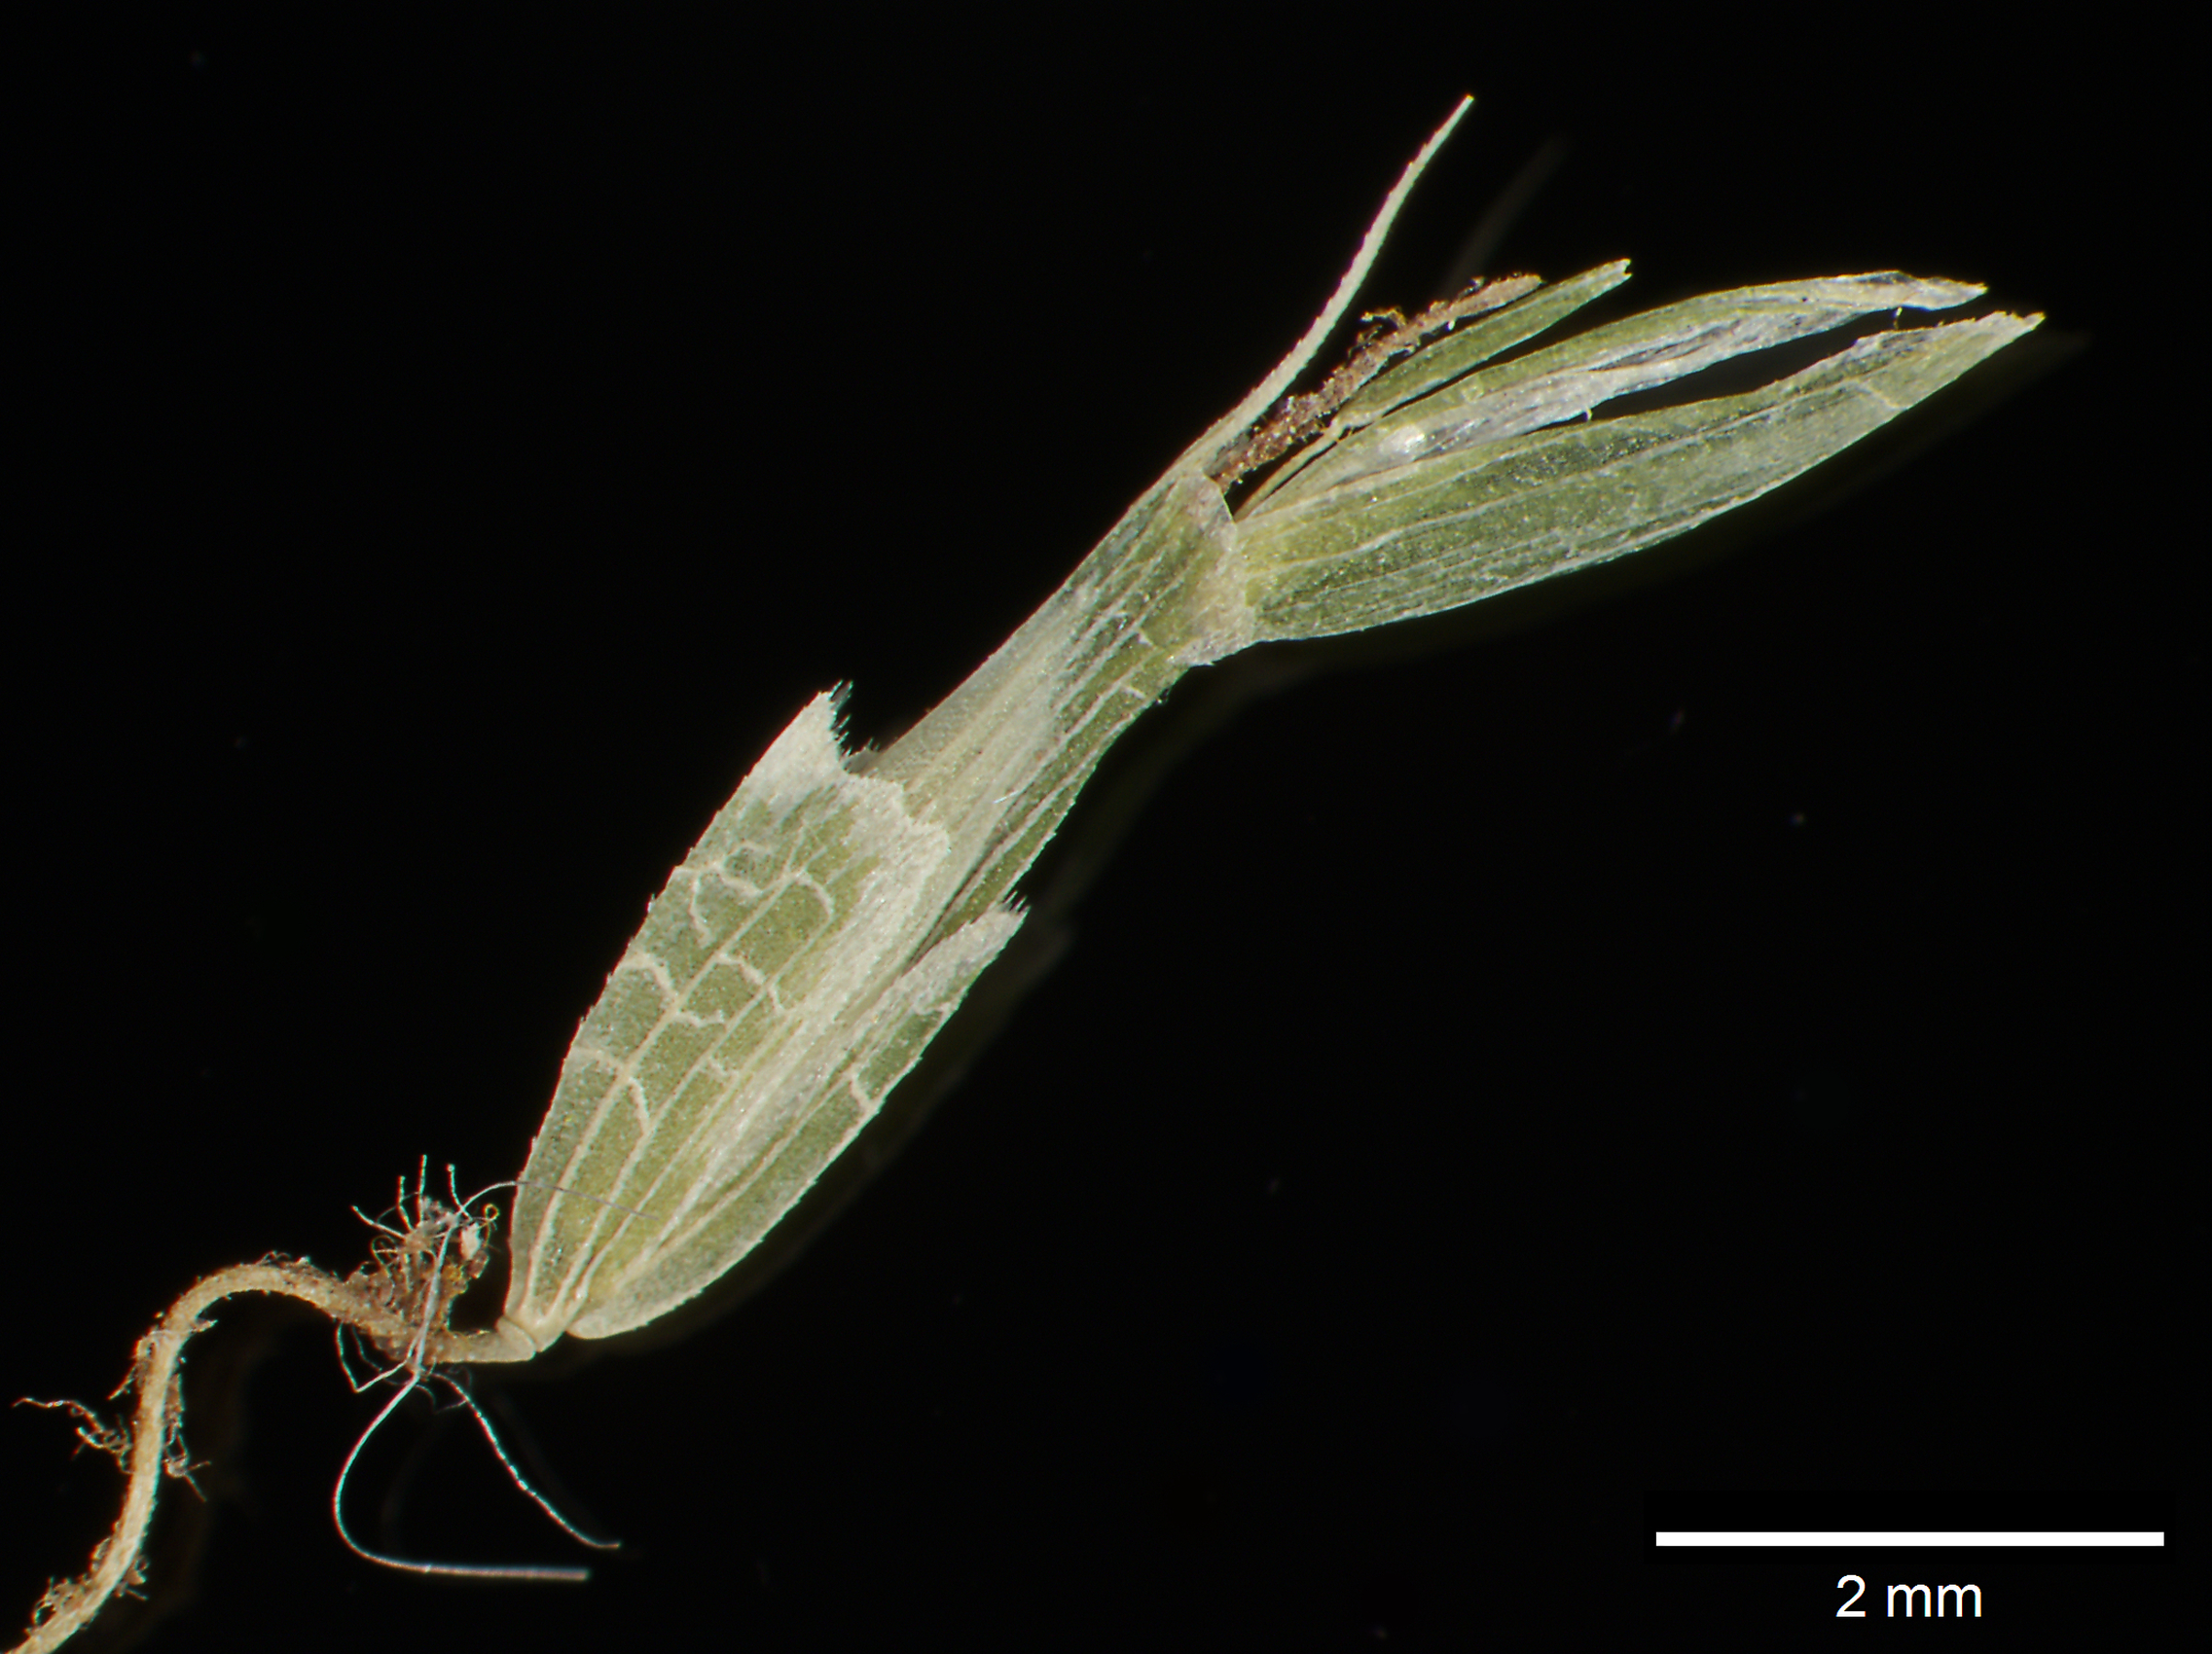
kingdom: Plantae
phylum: Tracheophyta
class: Liliopsida
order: Poales
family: Poaceae
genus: Zeugites
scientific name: Zeugites americanus
